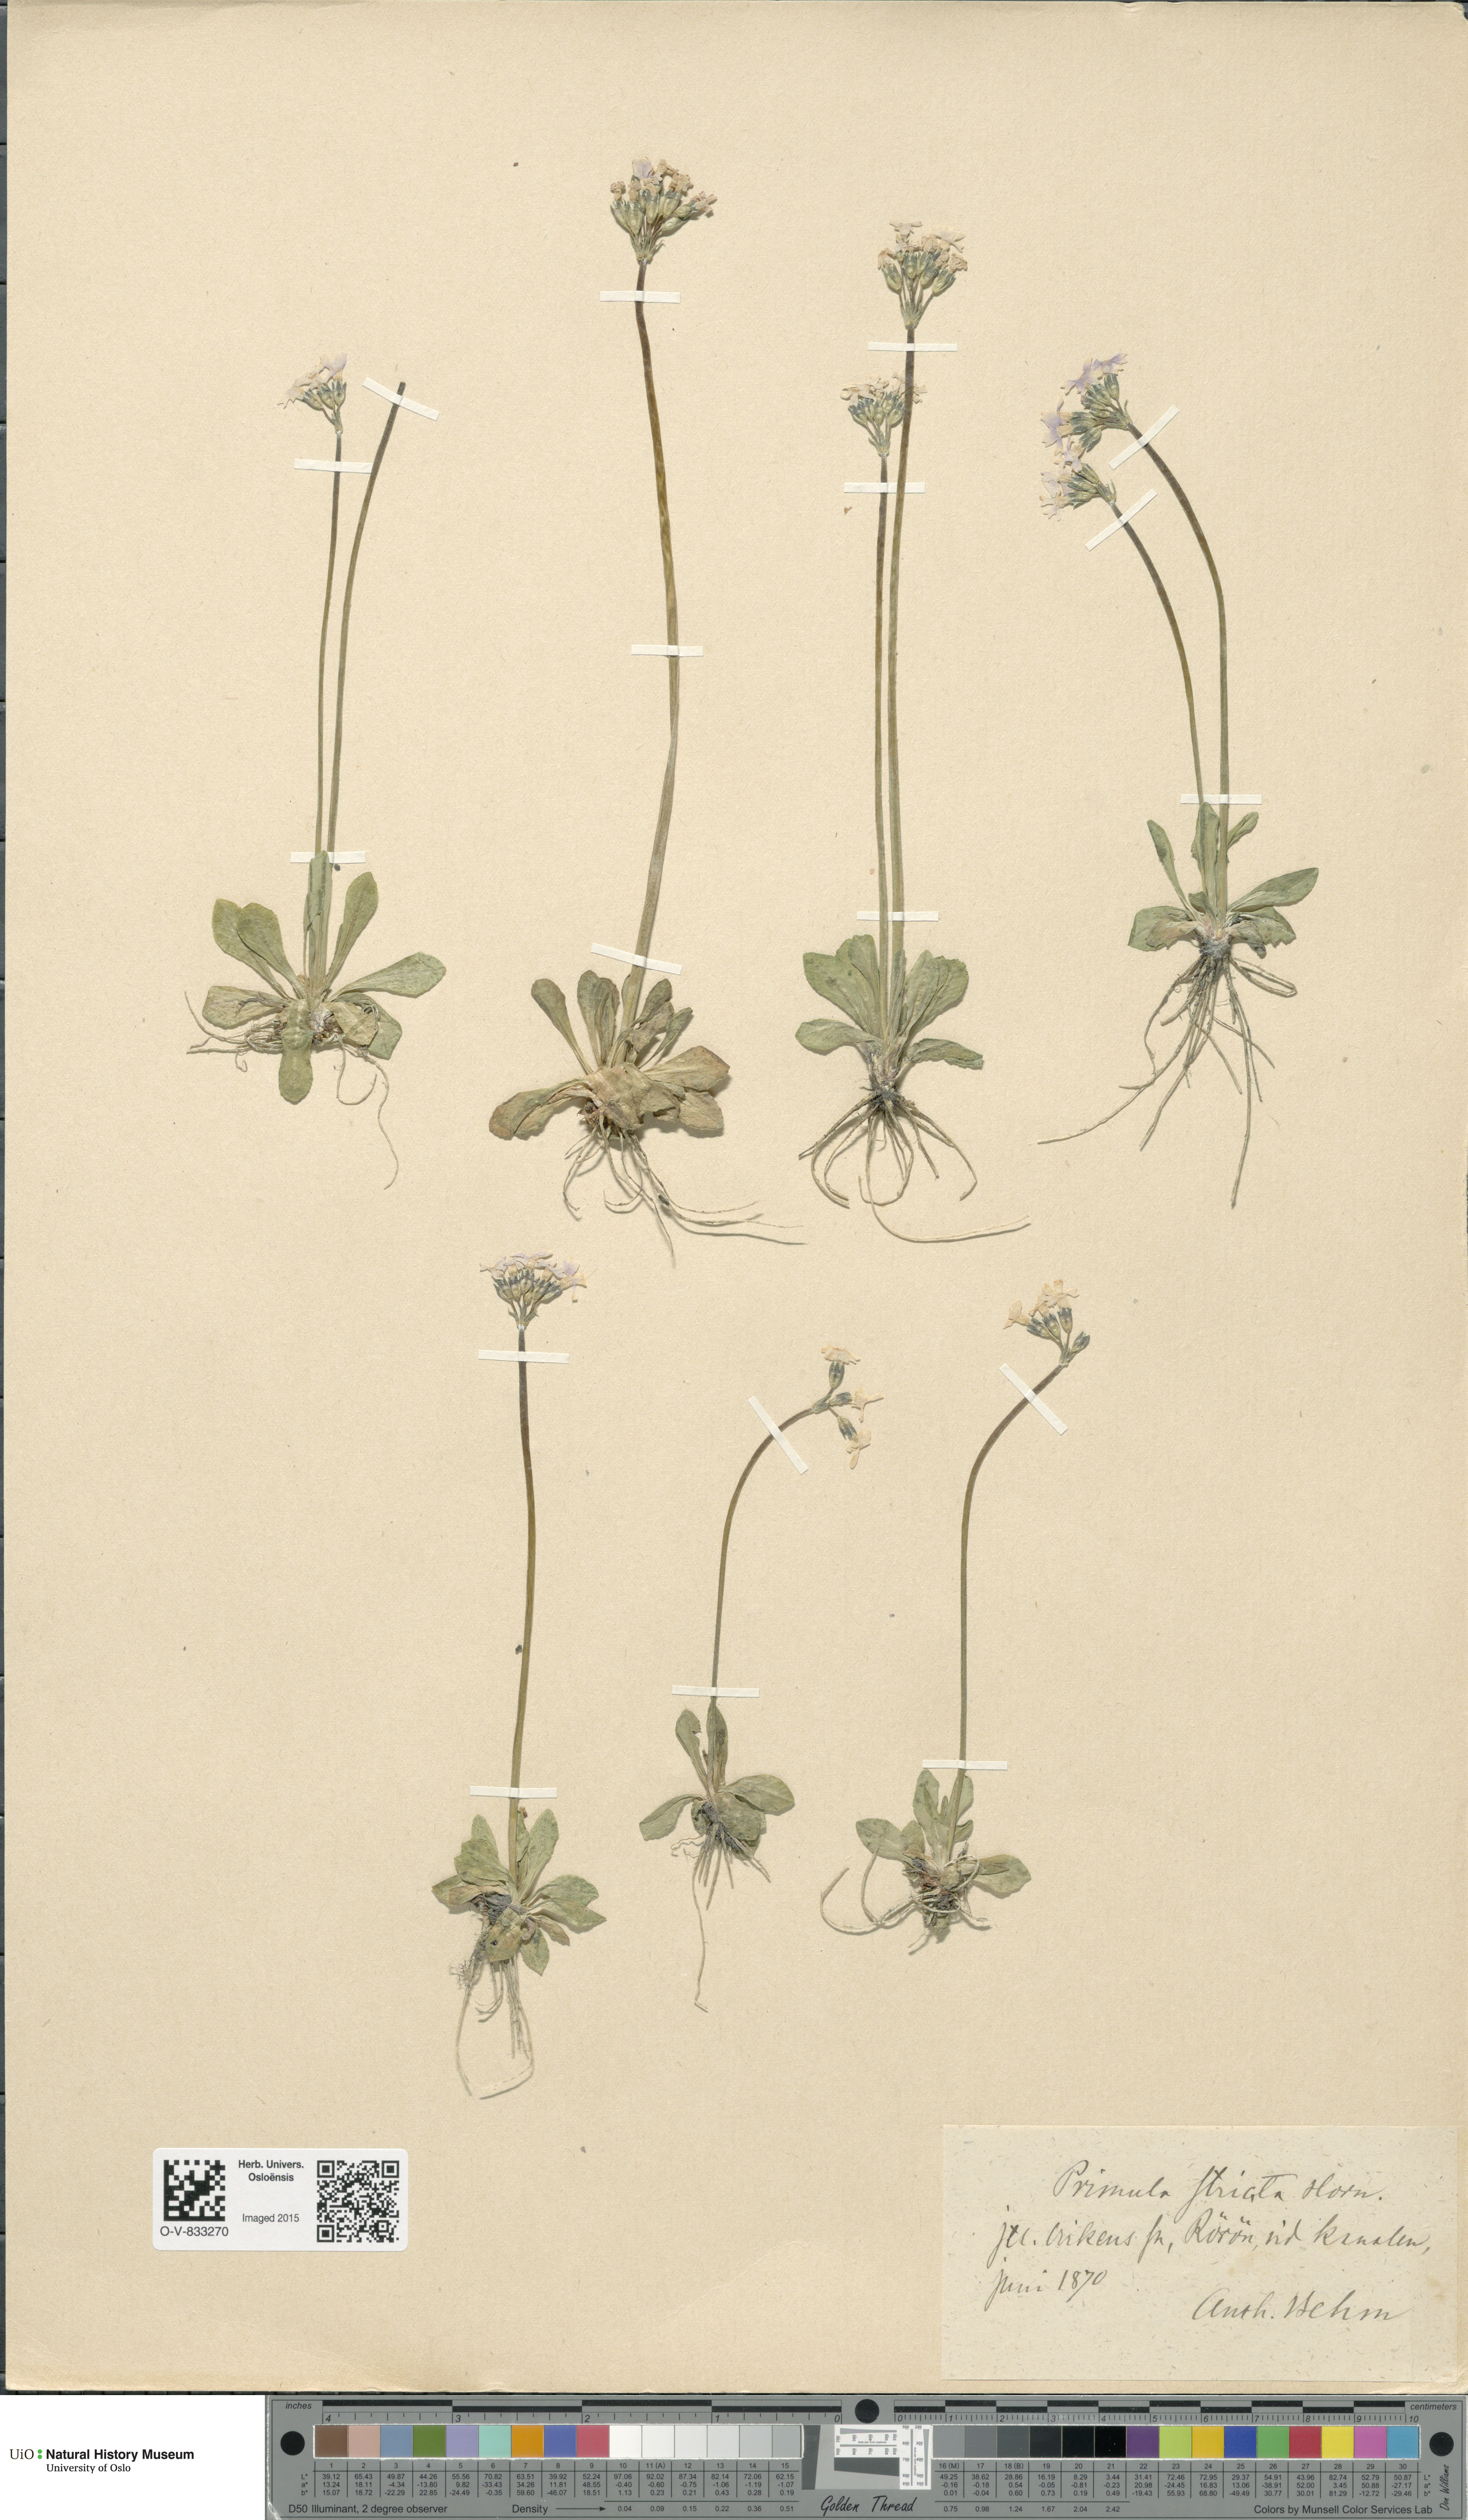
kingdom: Plantae
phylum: Tracheophyta
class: Magnoliopsida
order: Ericales
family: Primulaceae
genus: Primula
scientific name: Primula stricta
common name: Coastal primrose
